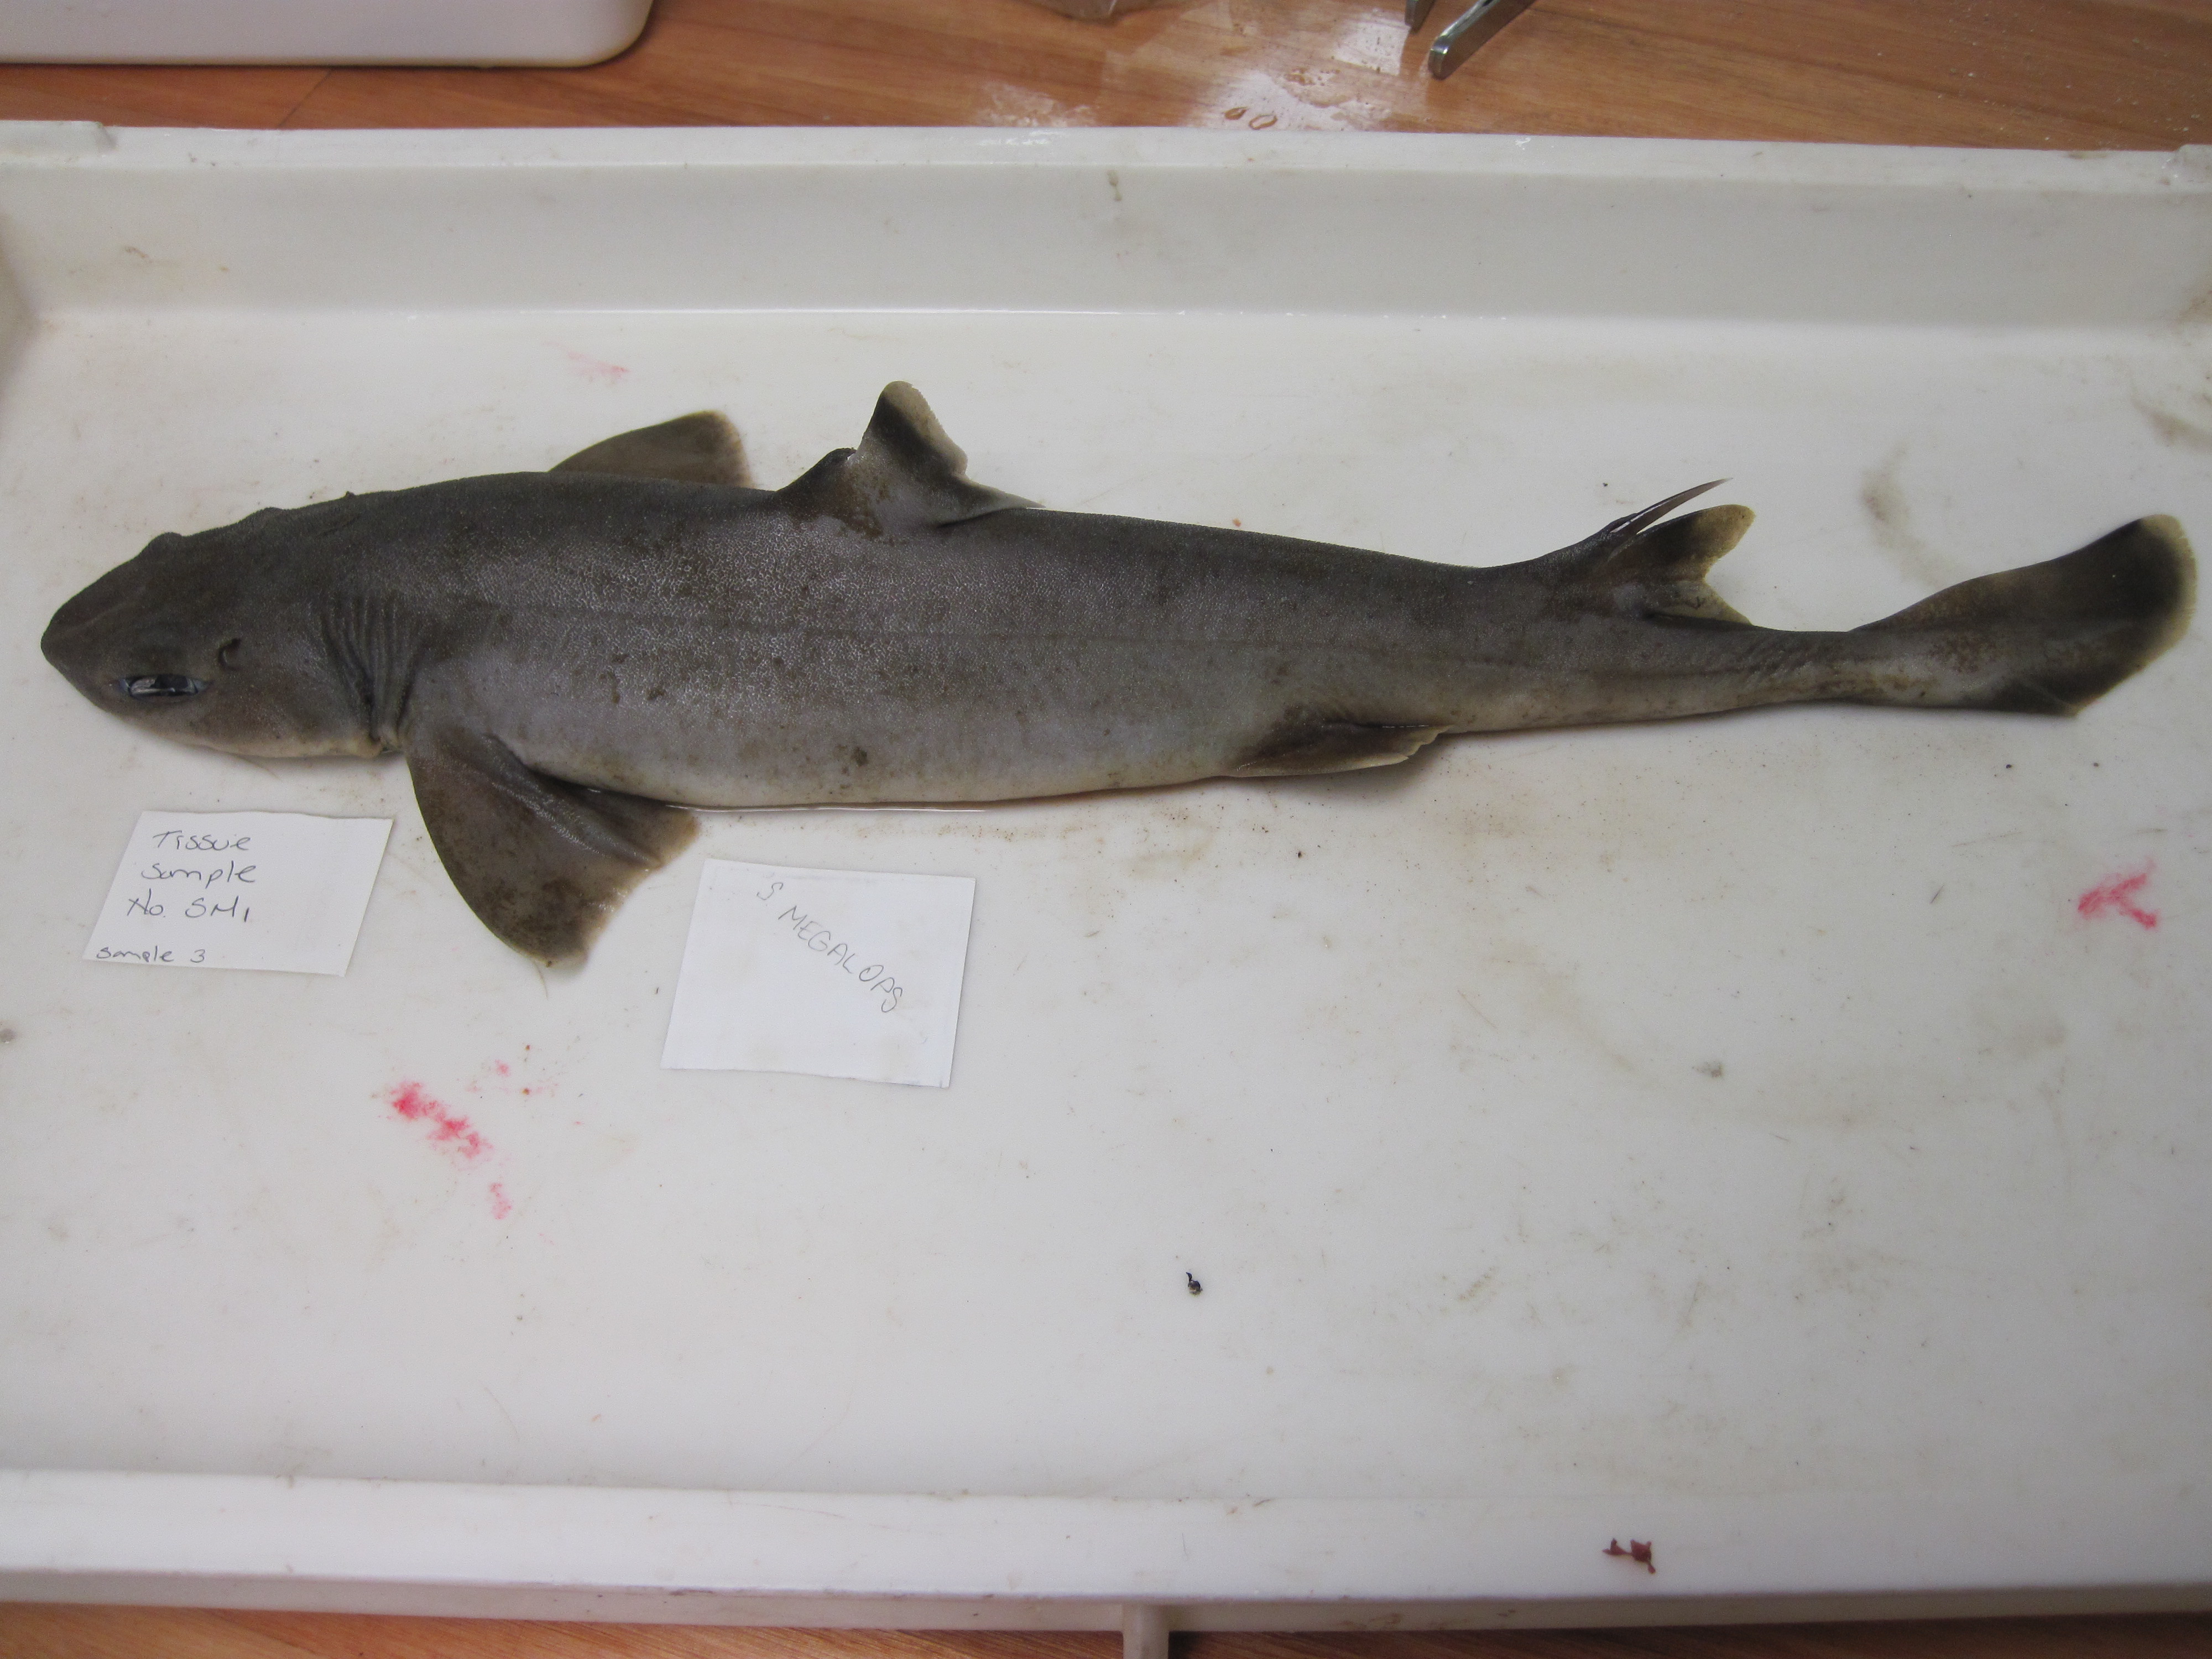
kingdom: Animalia
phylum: Chordata
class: Elasmobranchii
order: Squaliformes
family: Squalidae
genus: Cirrhigaleus
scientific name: Cirrhigaleus asper
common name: Roughskin dogfish
